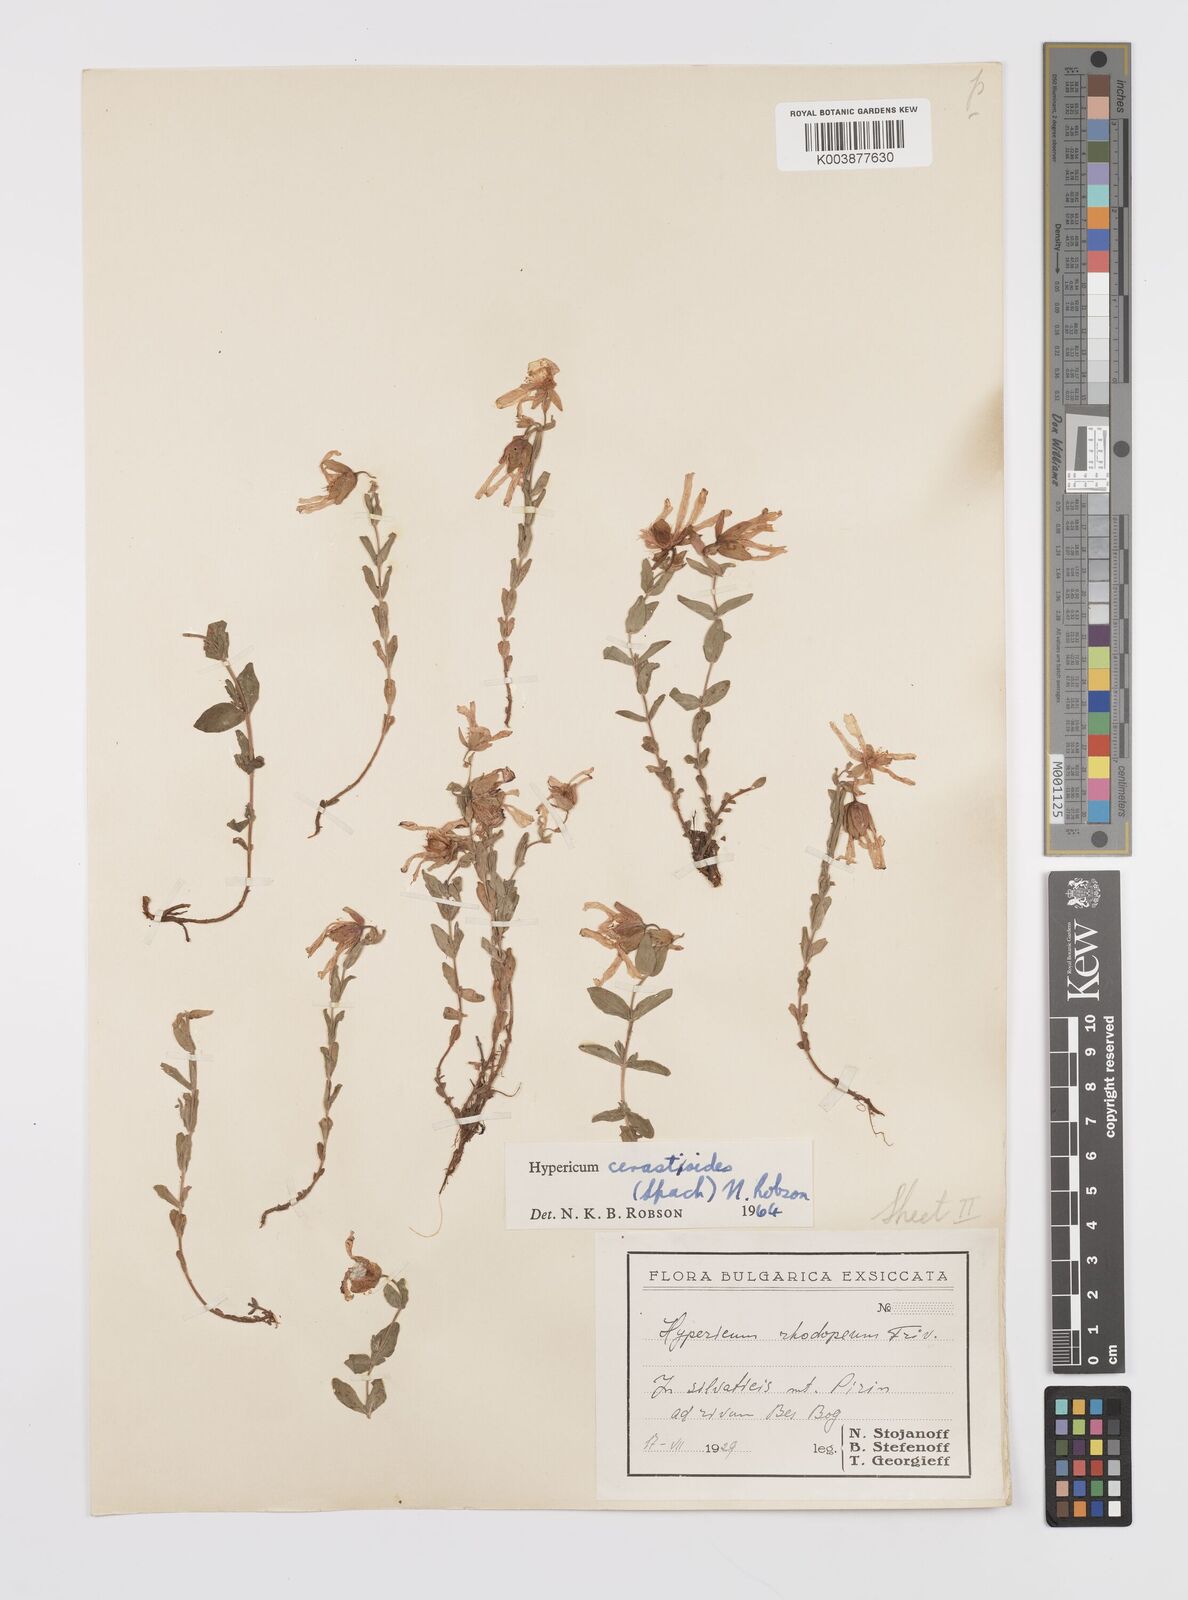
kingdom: Plantae
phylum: Tracheophyta
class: Magnoliopsida
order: Malpighiales
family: Hypericaceae
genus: Hypericum
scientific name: Hypericum cerastoides
